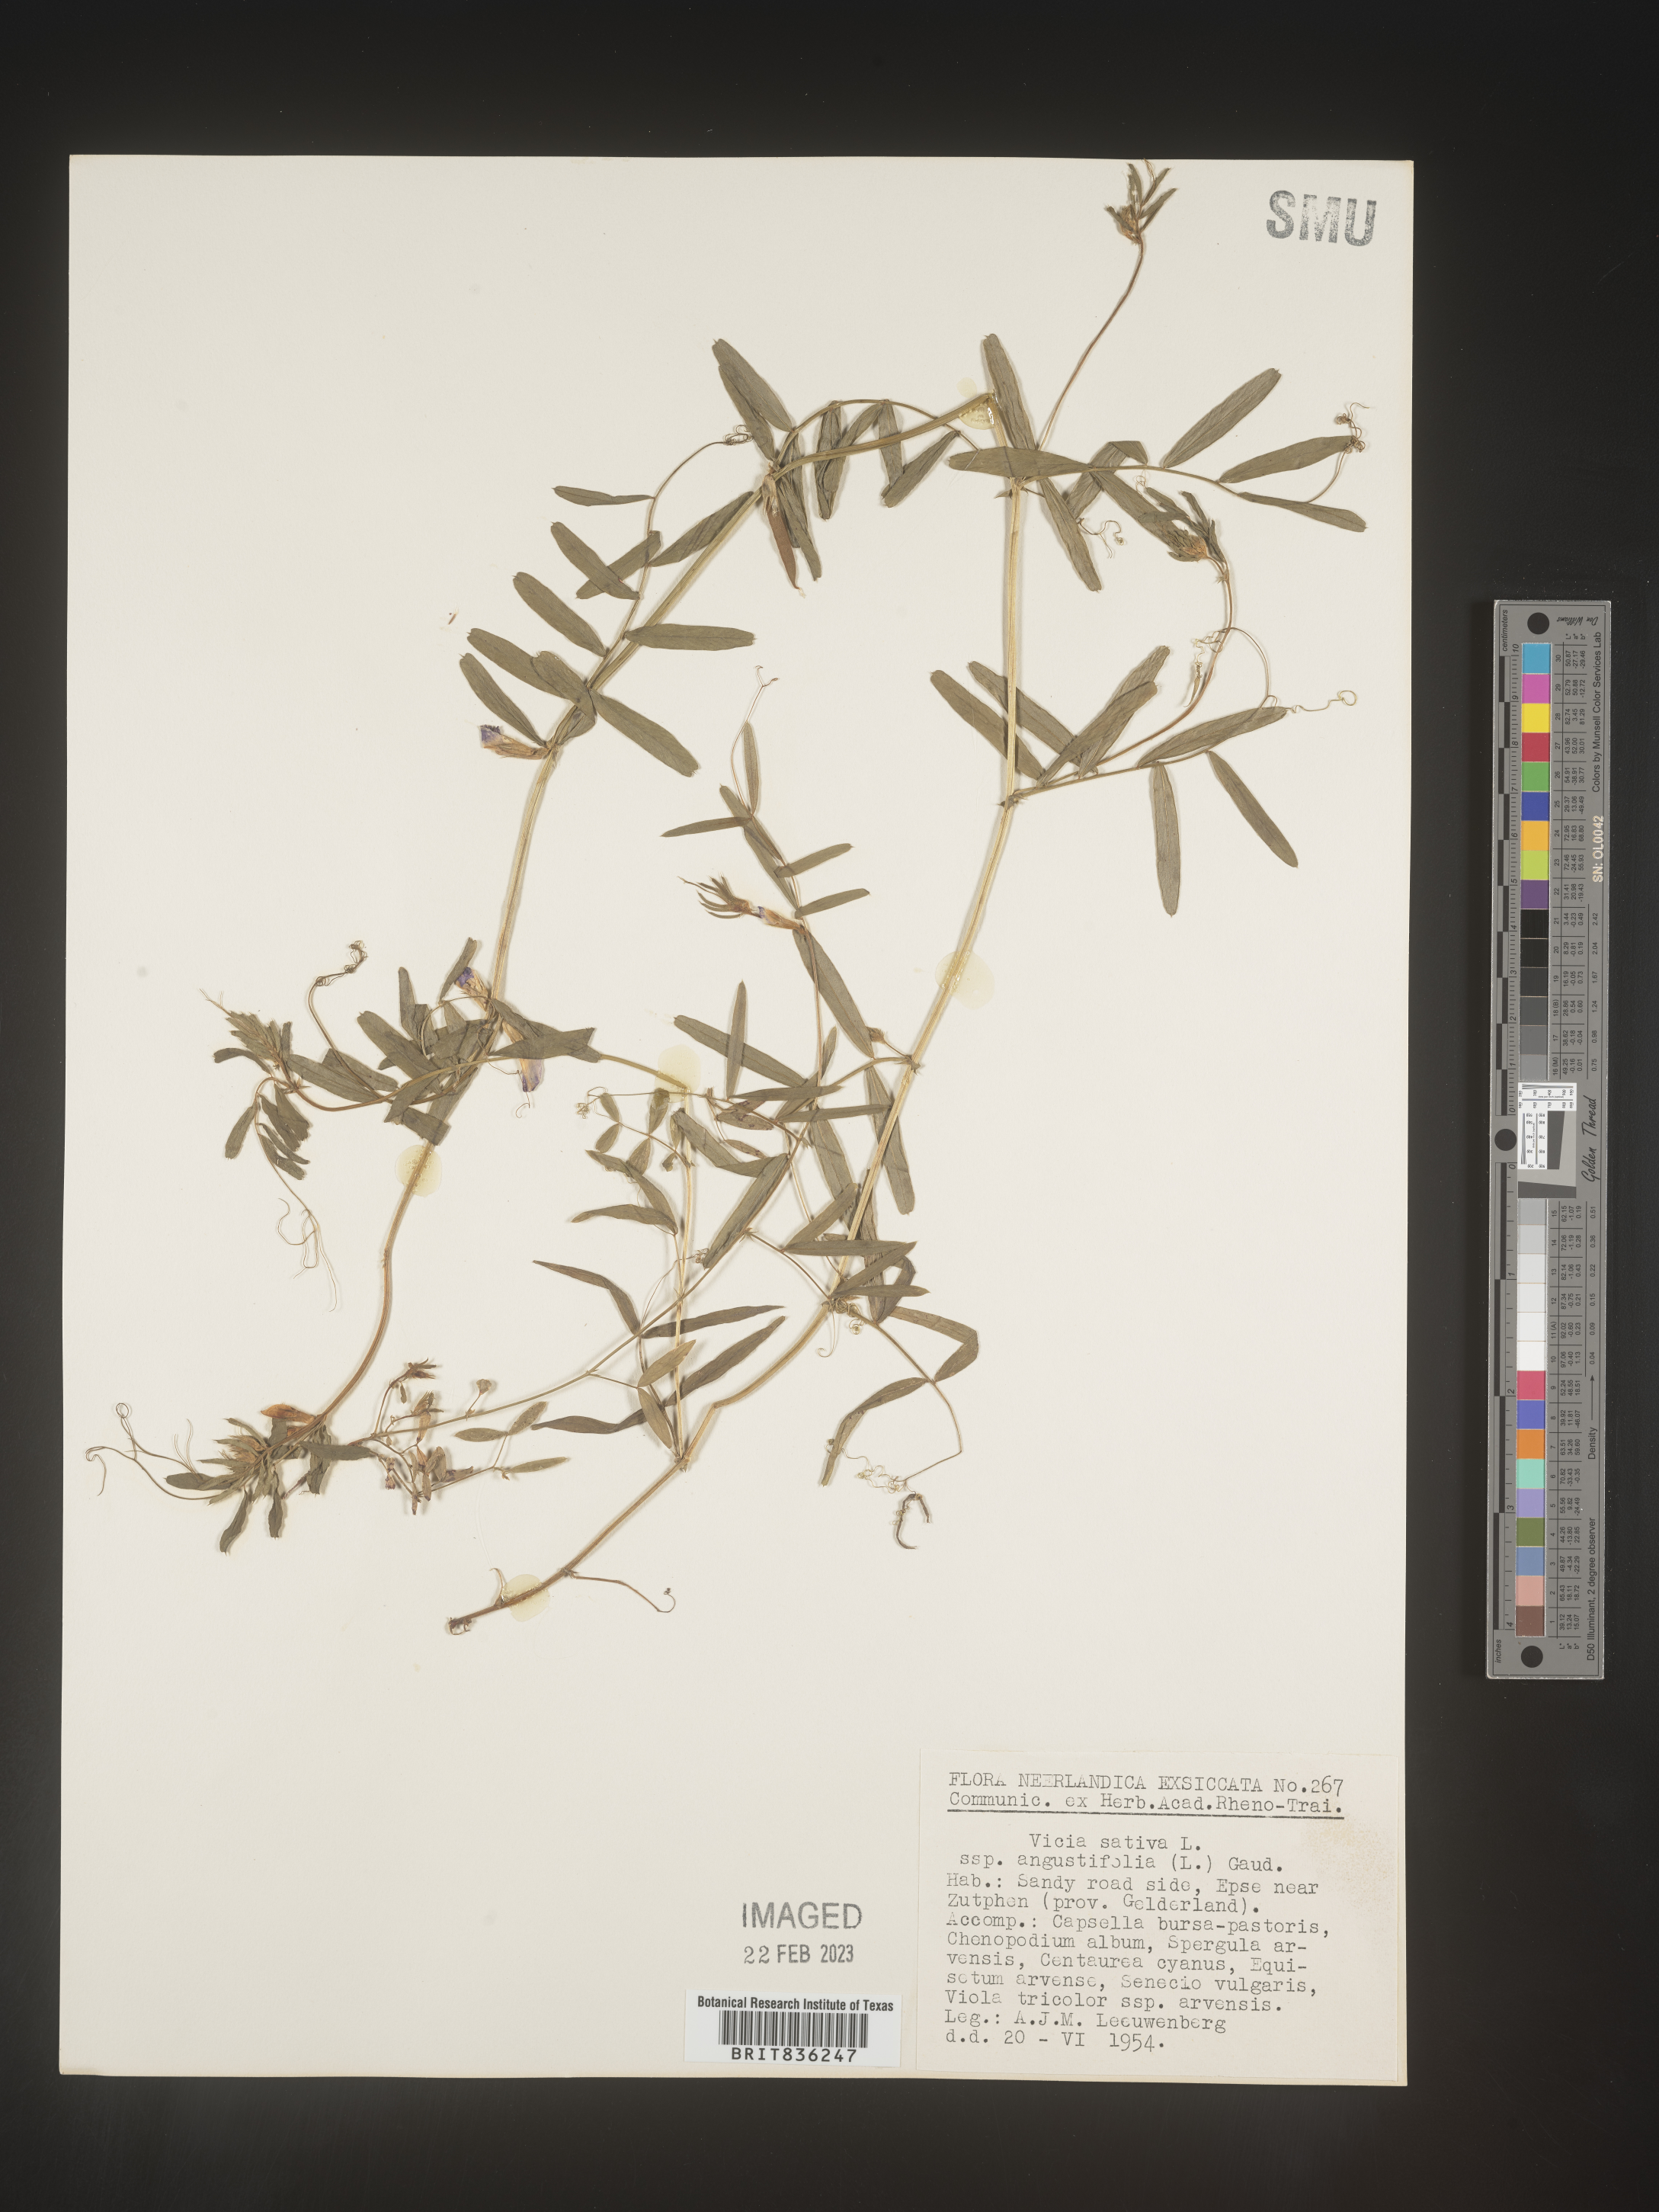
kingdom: Plantae
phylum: Tracheophyta
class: Magnoliopsida
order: Fabales
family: Fabaceae
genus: Vicia
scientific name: Vicia
